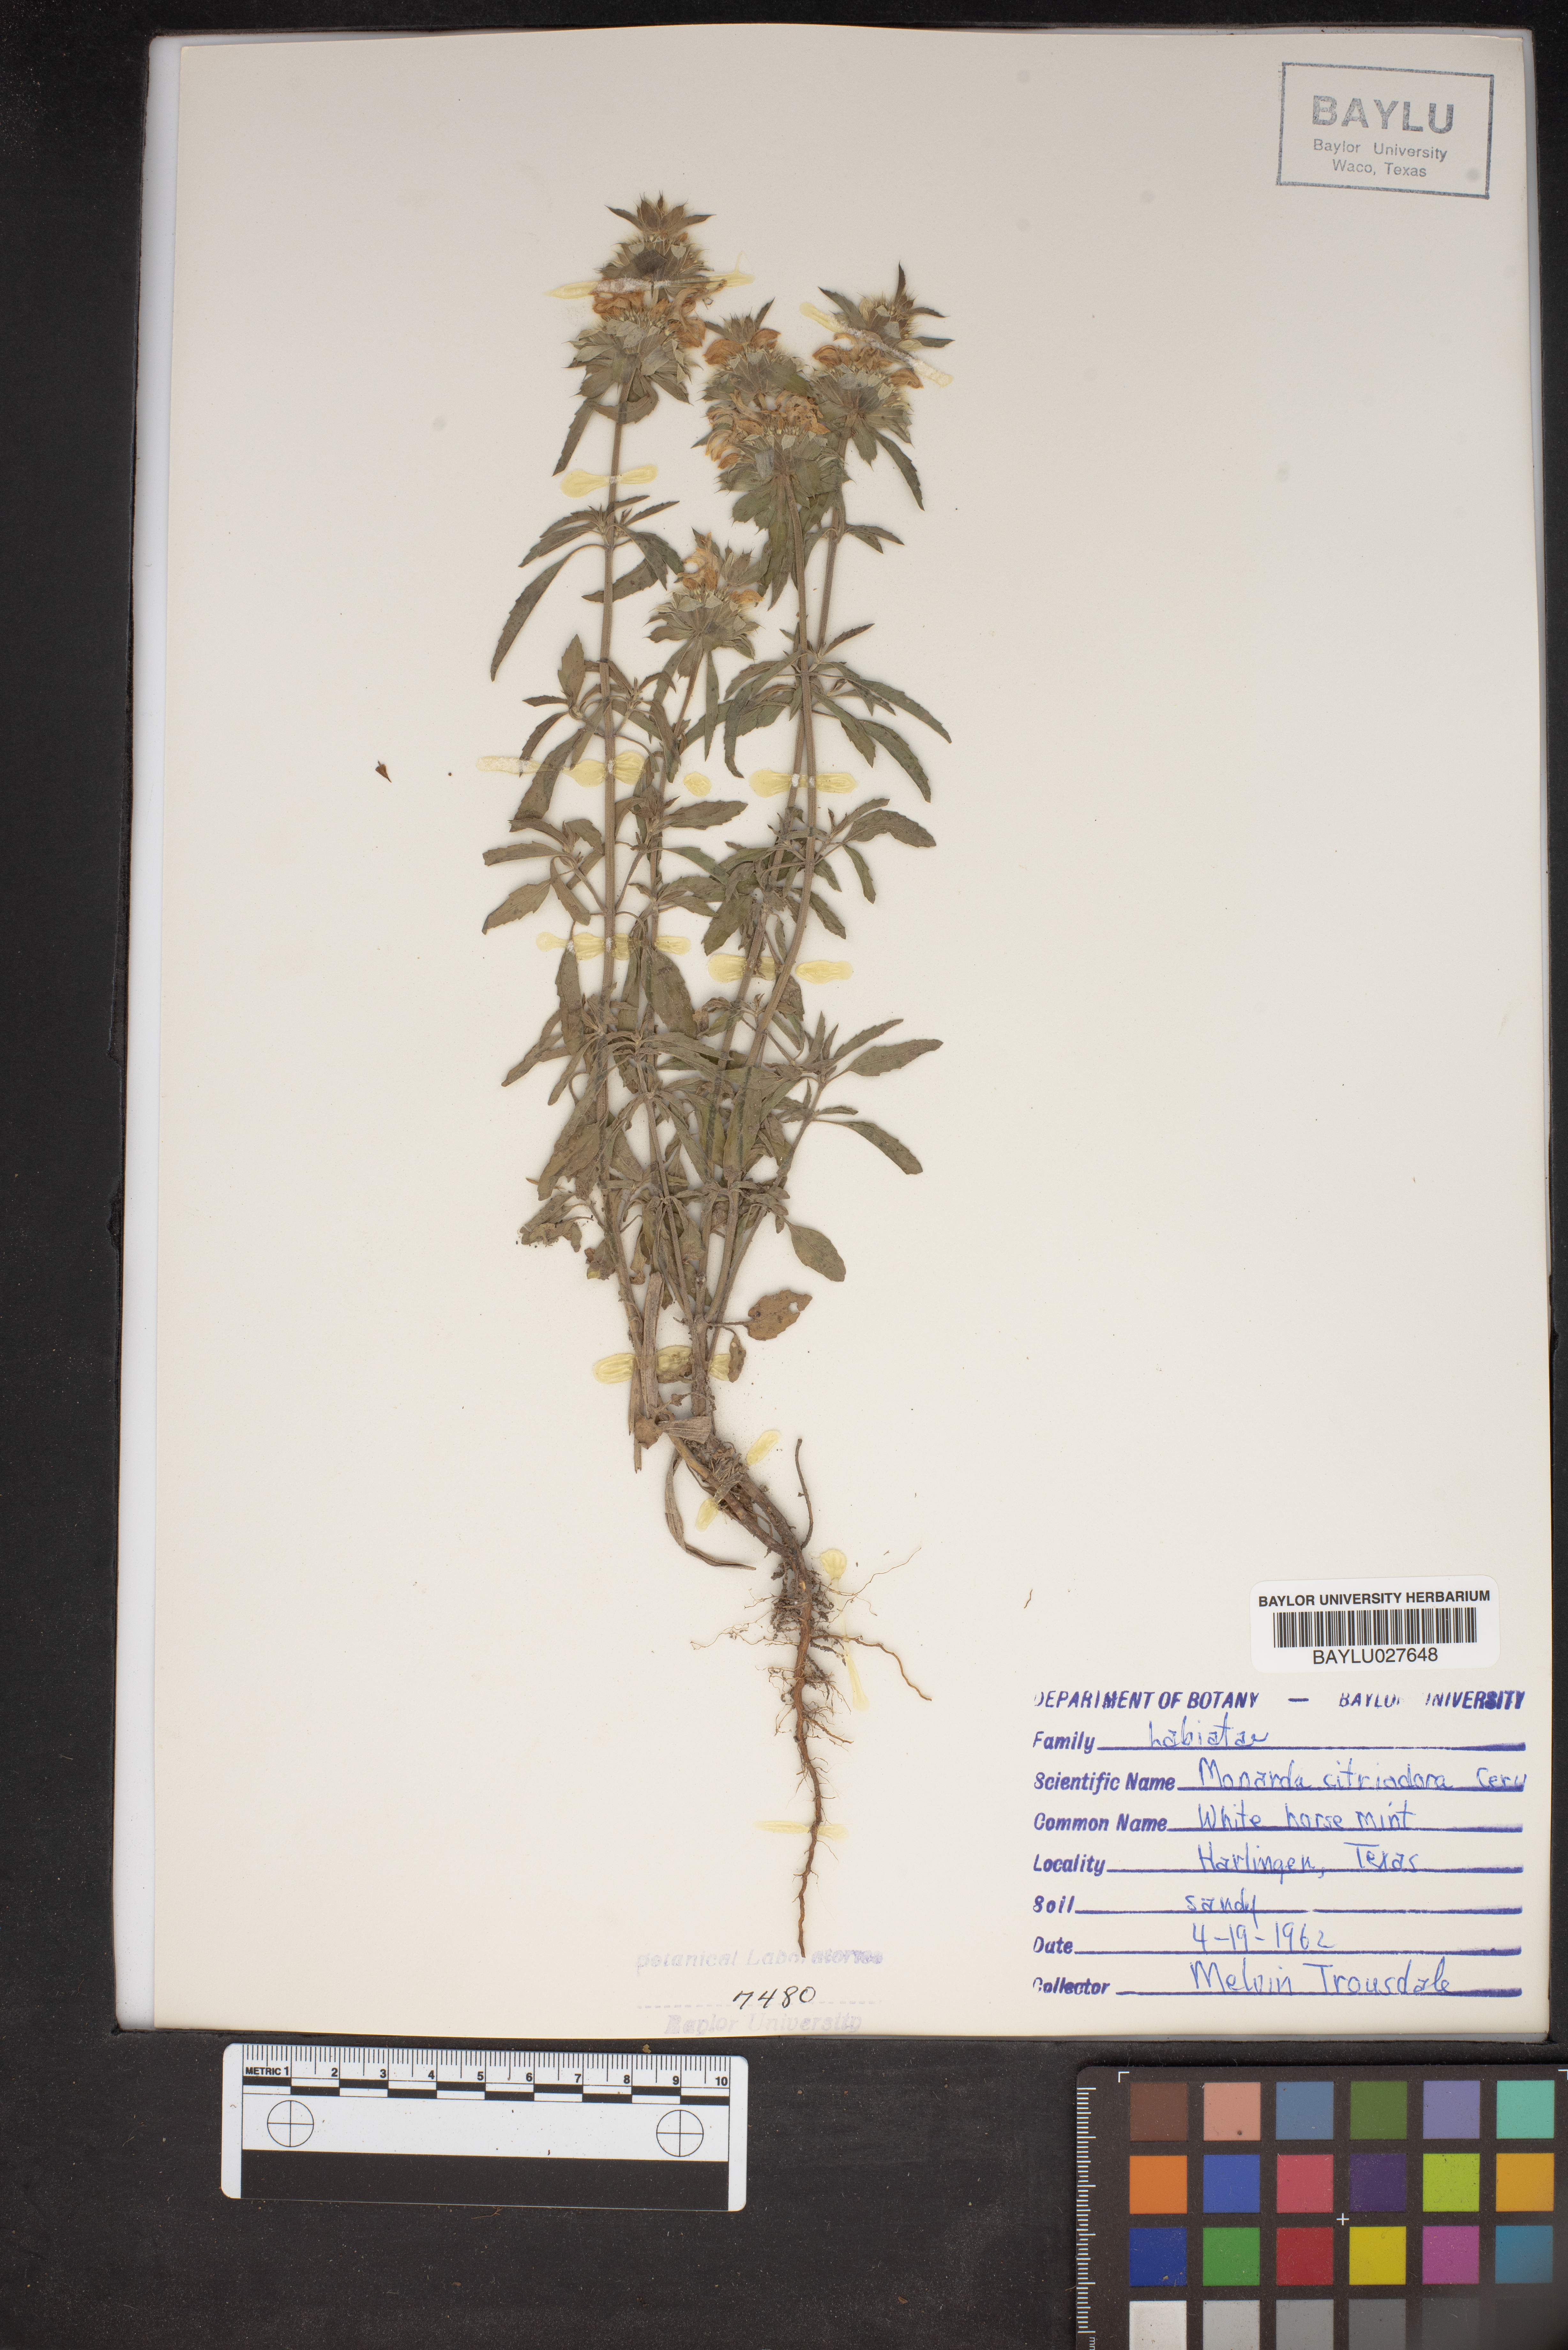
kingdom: Plantae
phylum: Tracheophyta
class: Magnoliopsida
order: Lamiales
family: Lamiaceae
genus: Monarda
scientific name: Monarda citriodora
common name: Lemon beebalm
